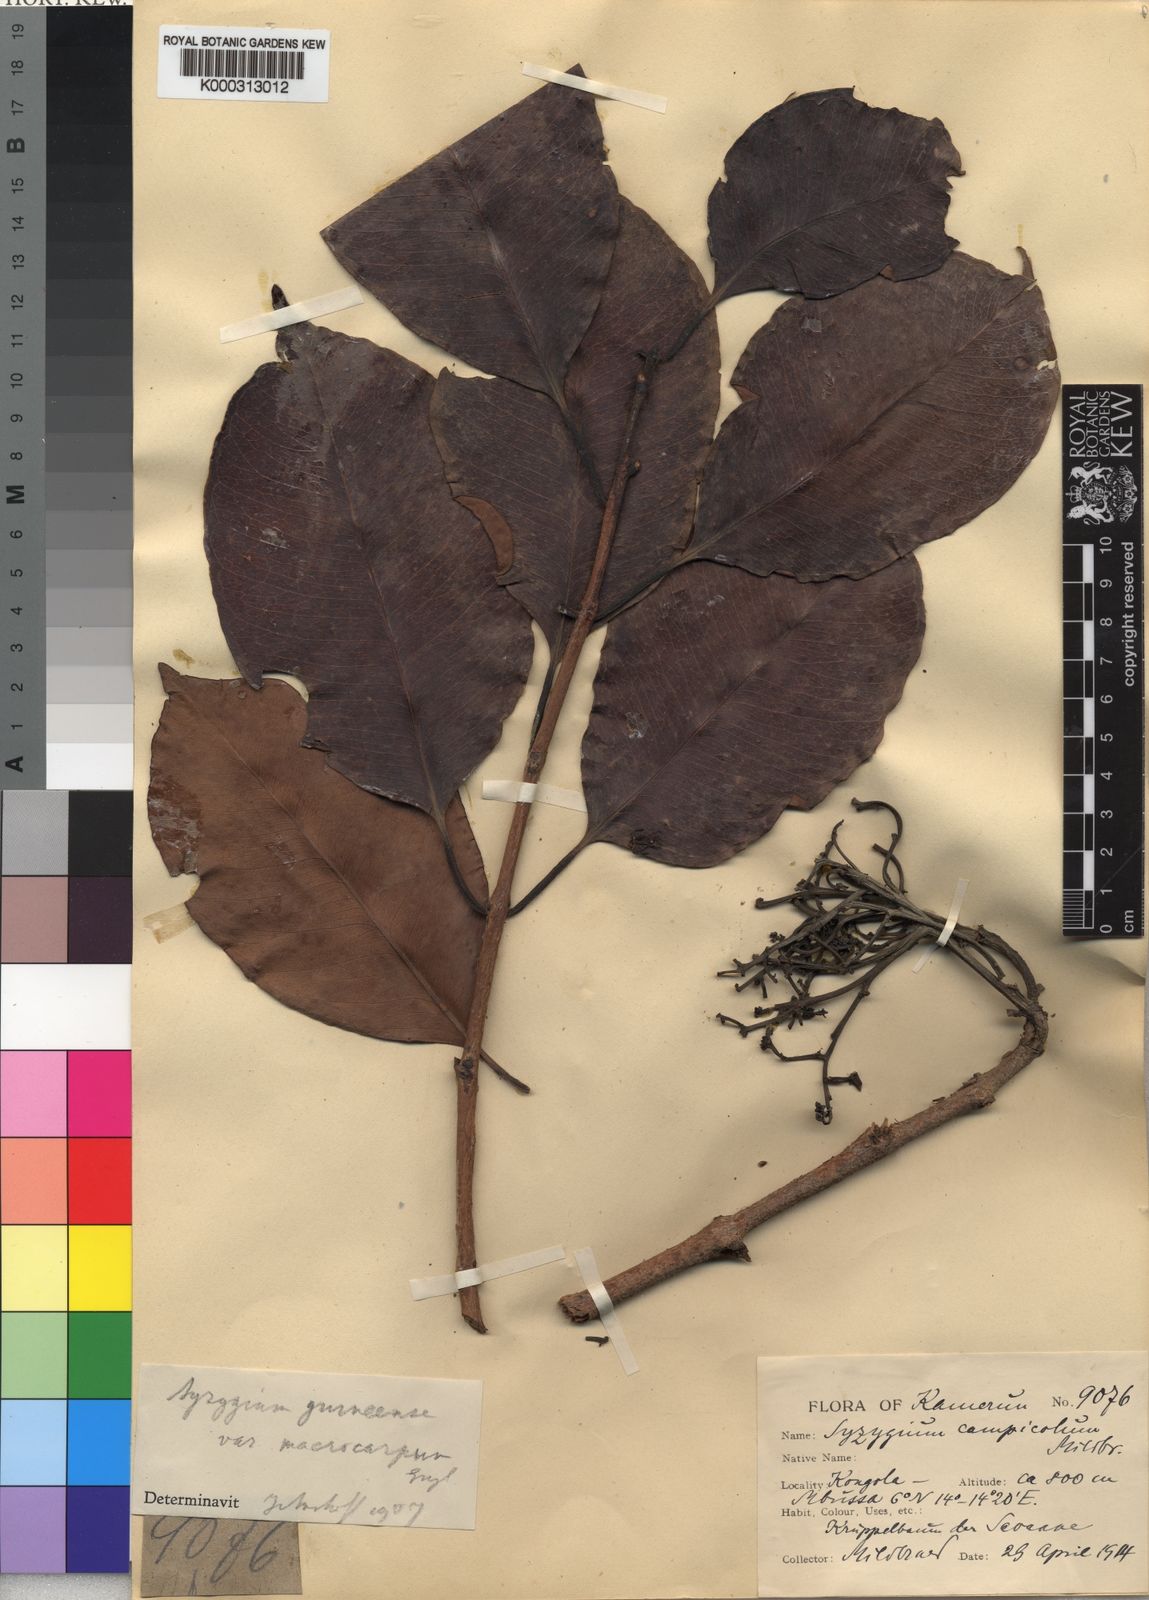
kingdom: Plantae
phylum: Tracheophyta
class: Magnoliopsida
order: Myrtales
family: Myrtaceae
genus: Syzygium
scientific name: Syzygium
